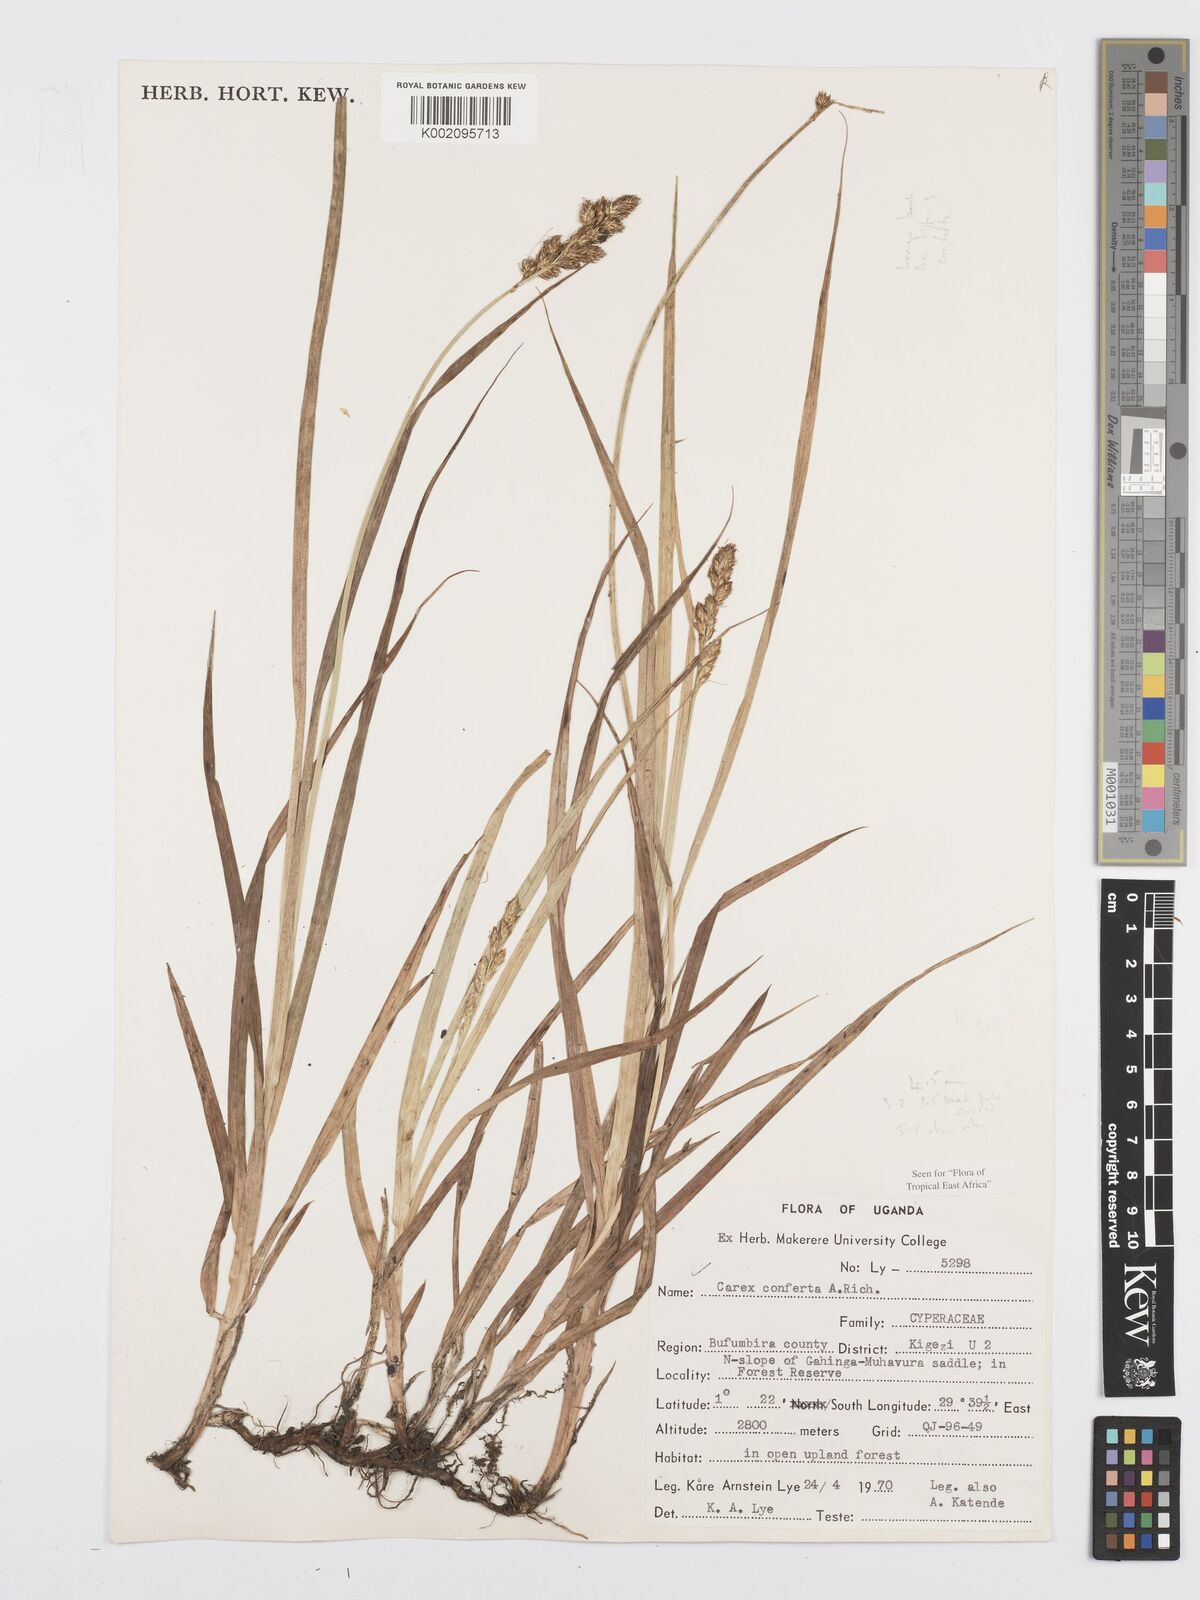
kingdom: Plantae
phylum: Tracheophyta
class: Liliopsida
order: Poales
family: Cyperaceae
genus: Carex
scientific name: Carex conferta
